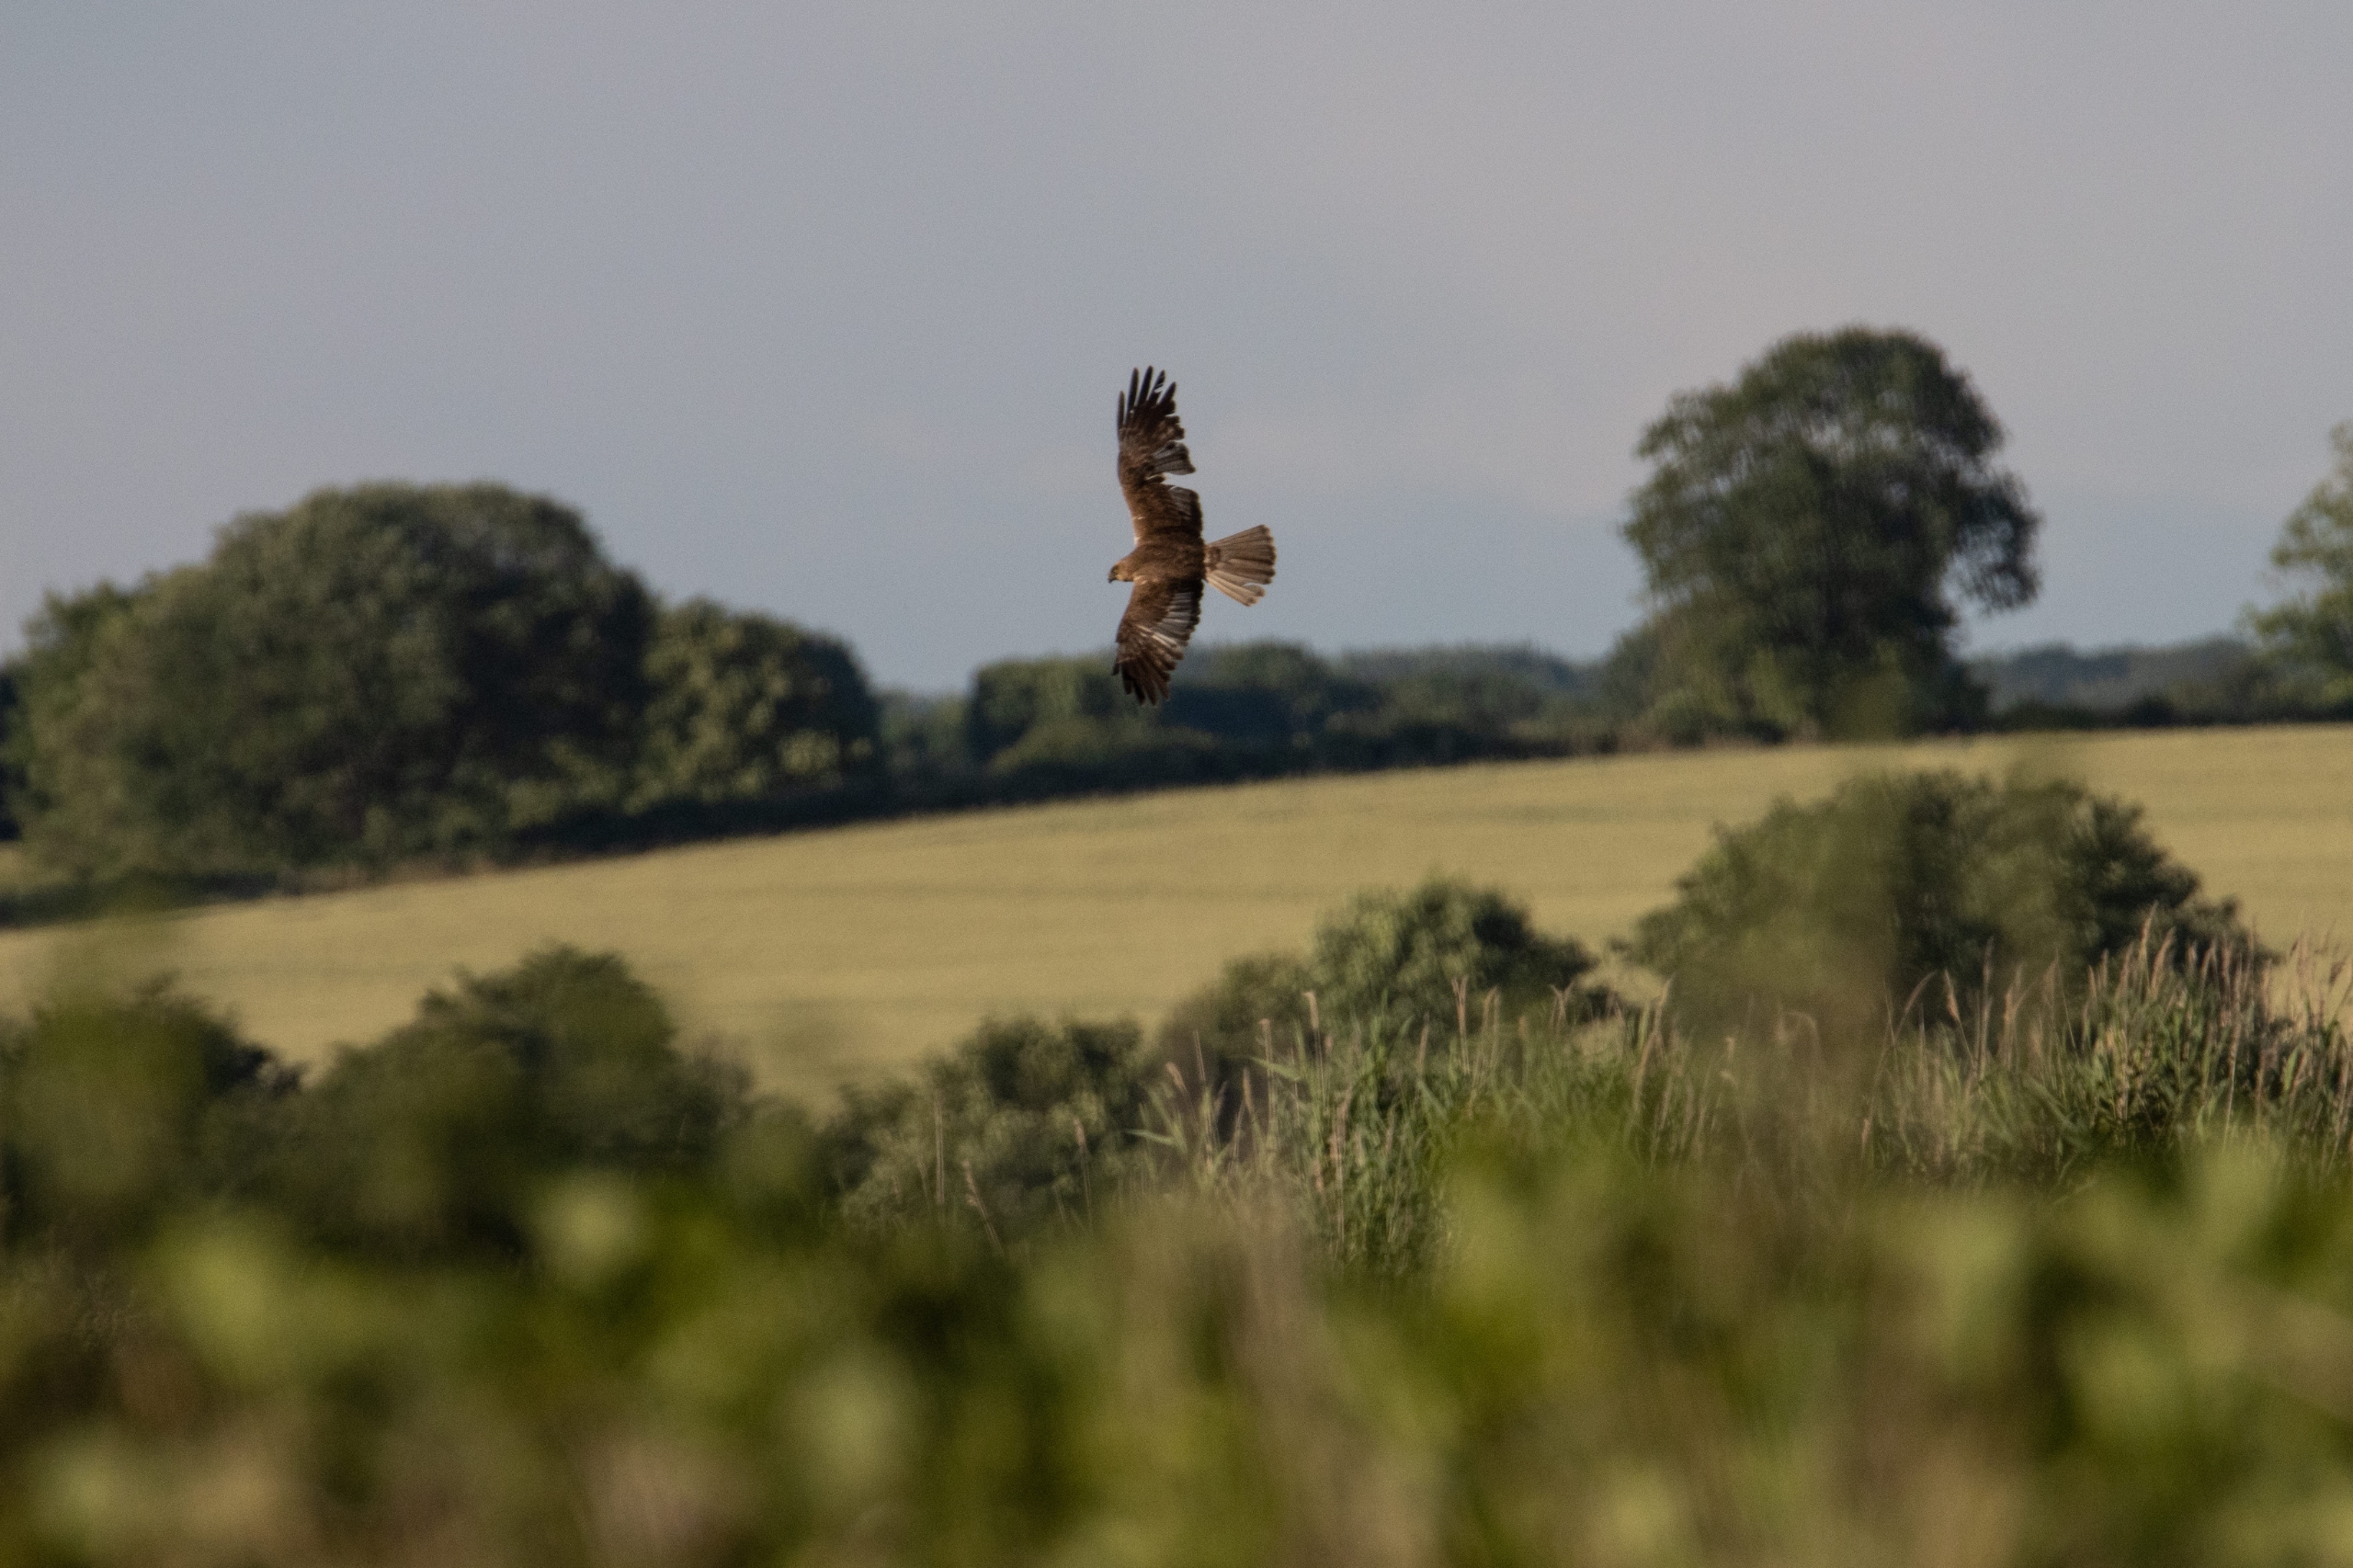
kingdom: Animalia
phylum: Chordata
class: Aves
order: Accipitriformes
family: Accipitridae
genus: Circus
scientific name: Circus aeruginosus
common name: Rørhøg
